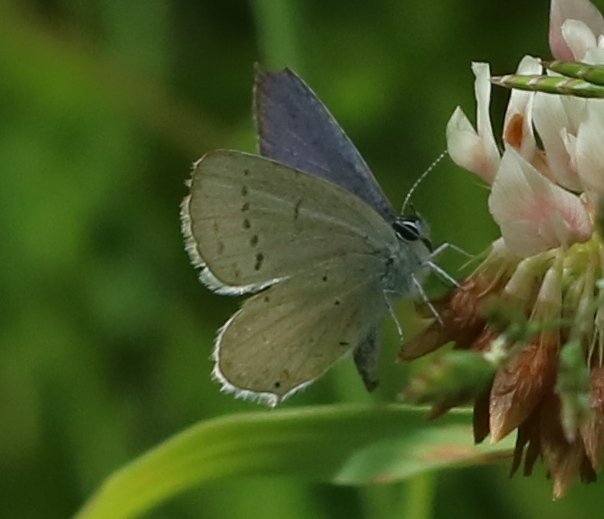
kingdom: Animalia
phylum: Arthropoda
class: Insecta
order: Lepidoptera
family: Lycaenidae
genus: Elkalyce
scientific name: Elkalyce amyntula
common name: Western Tailed-Blue
